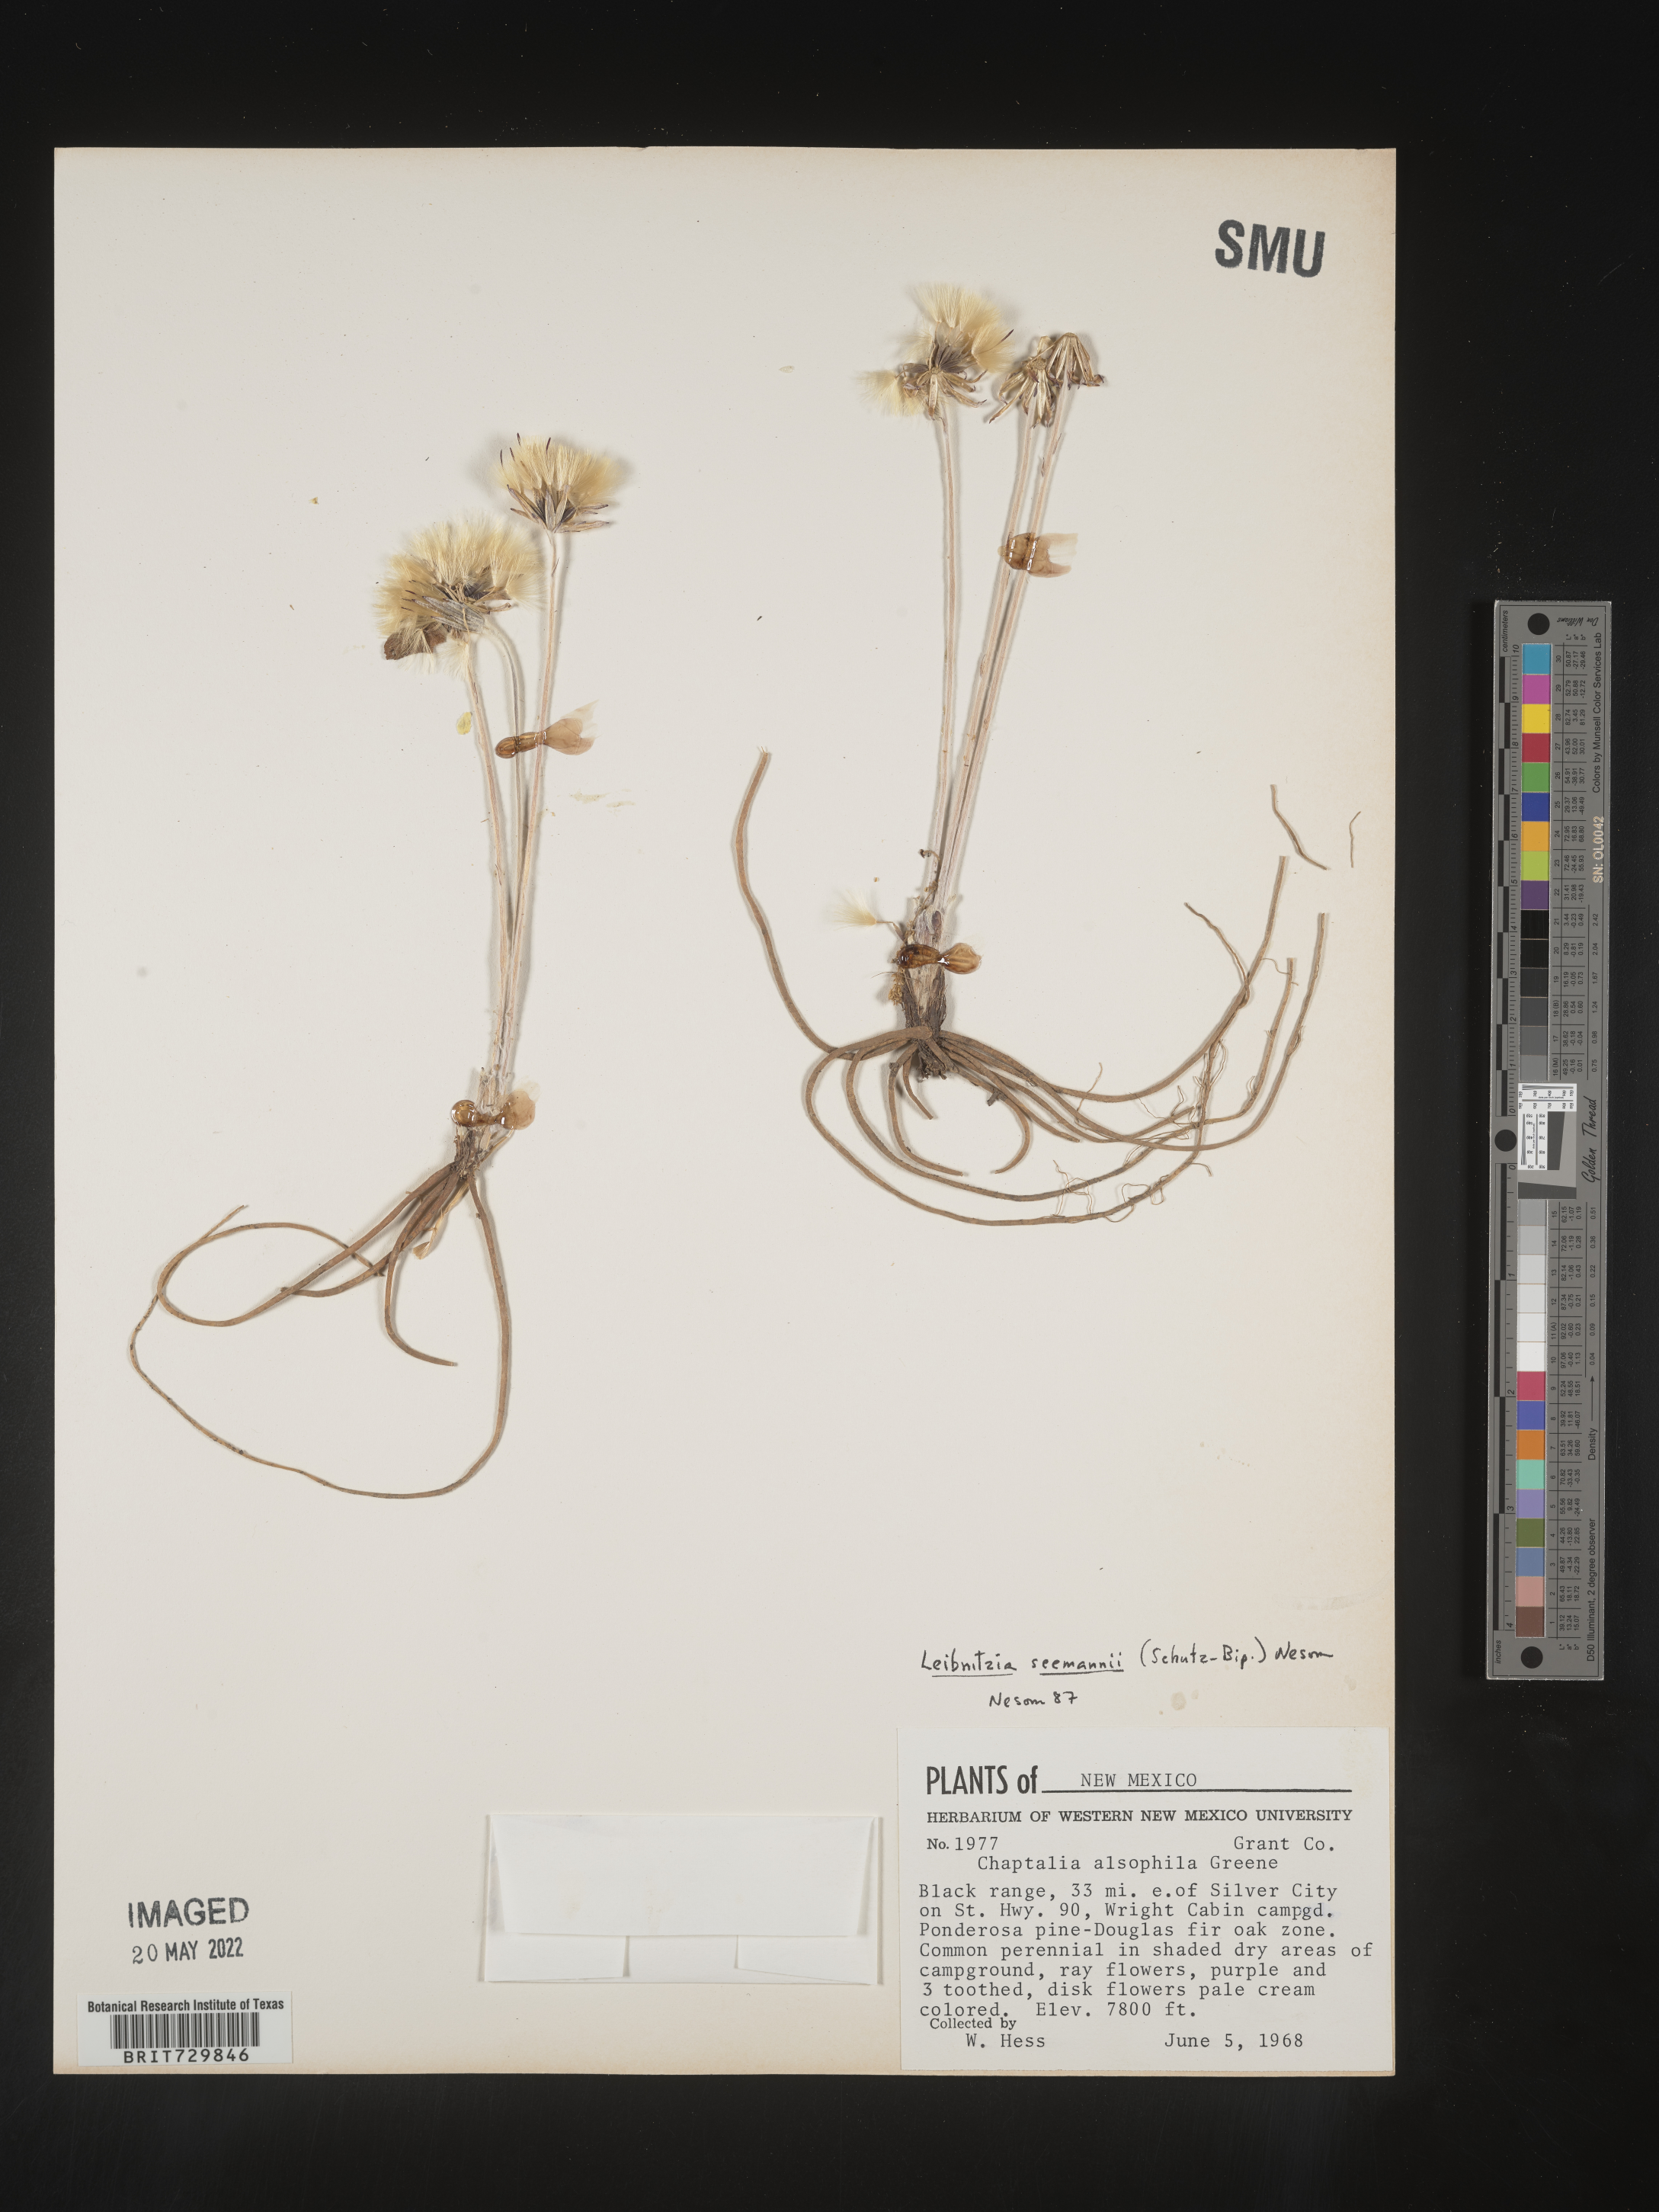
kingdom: Plantae
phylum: Tracheophyta
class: Magnoliopsida
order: Asterales
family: Asteraceae
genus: Leibnitzia
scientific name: Leibnitzia
